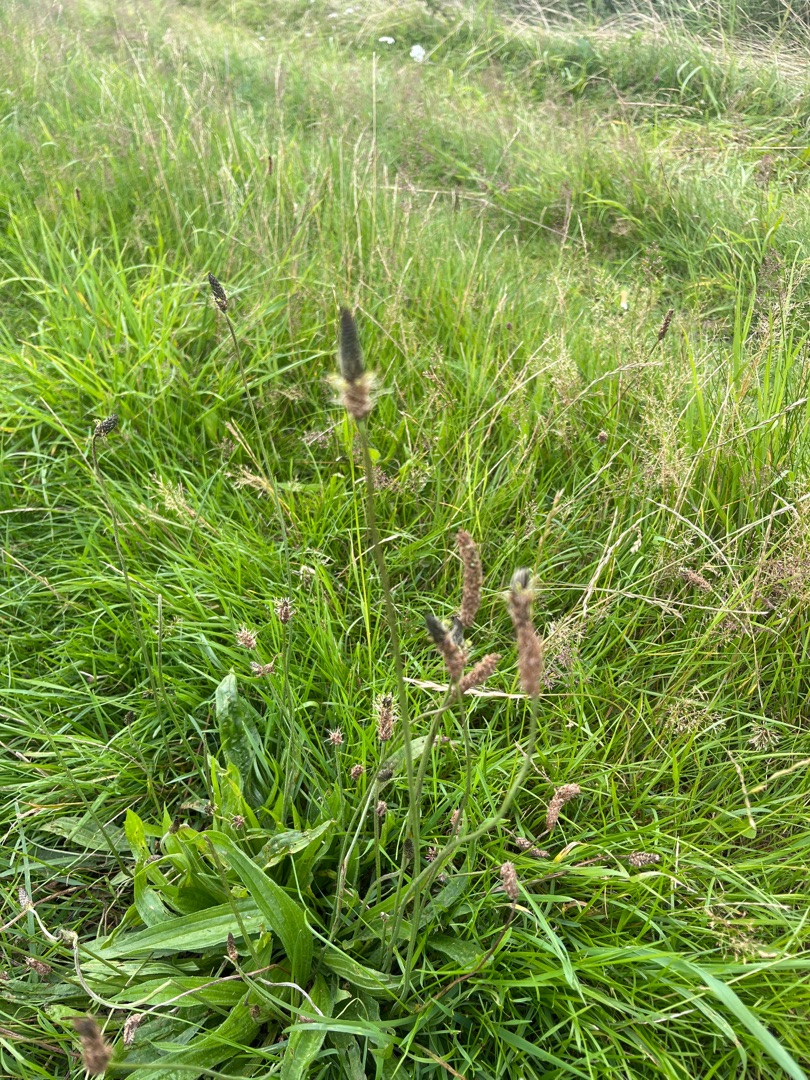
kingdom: Plantae
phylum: Tracheophyta
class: Magnoliopsida
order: Lamiales
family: Plantaginaceae
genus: Plantago
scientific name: Plantago lanceolata
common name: Lancet-vejbred
